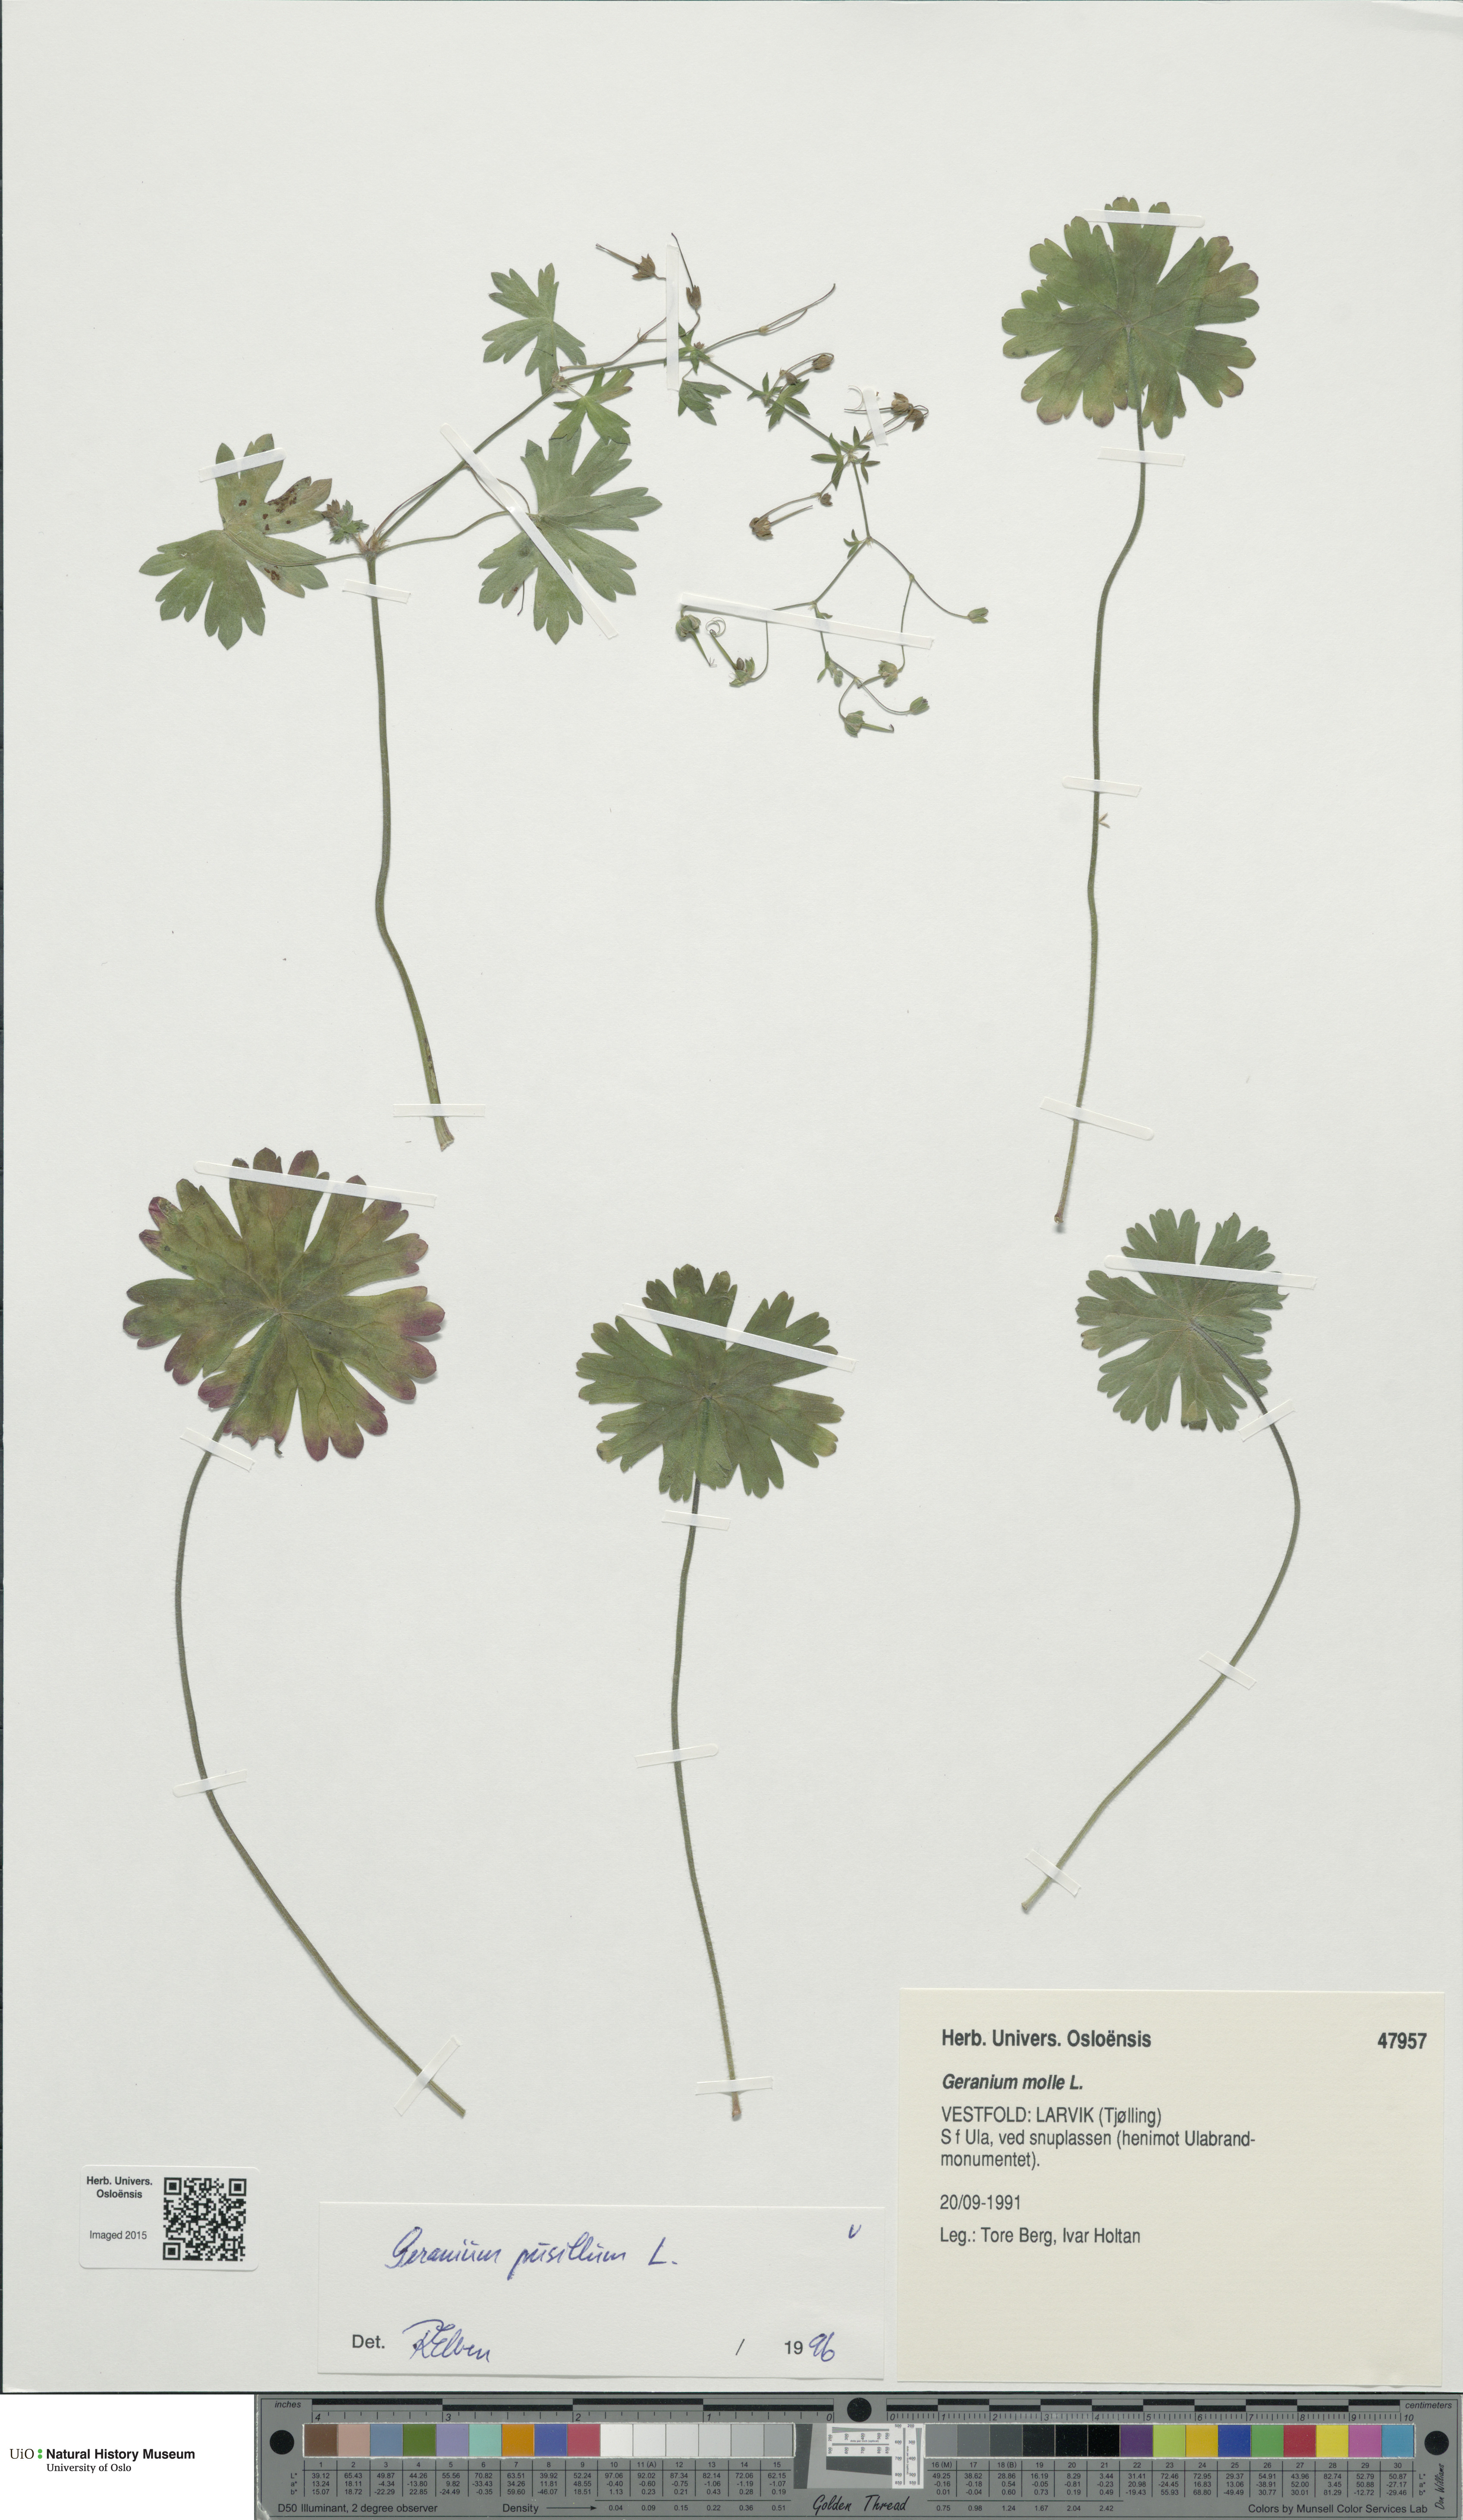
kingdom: Plantae
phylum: Tracheophyta
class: Magnoliopsida
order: Geraniales
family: Geraniaceae
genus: Geranium
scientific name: Geranium pusillum
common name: Small geranium
